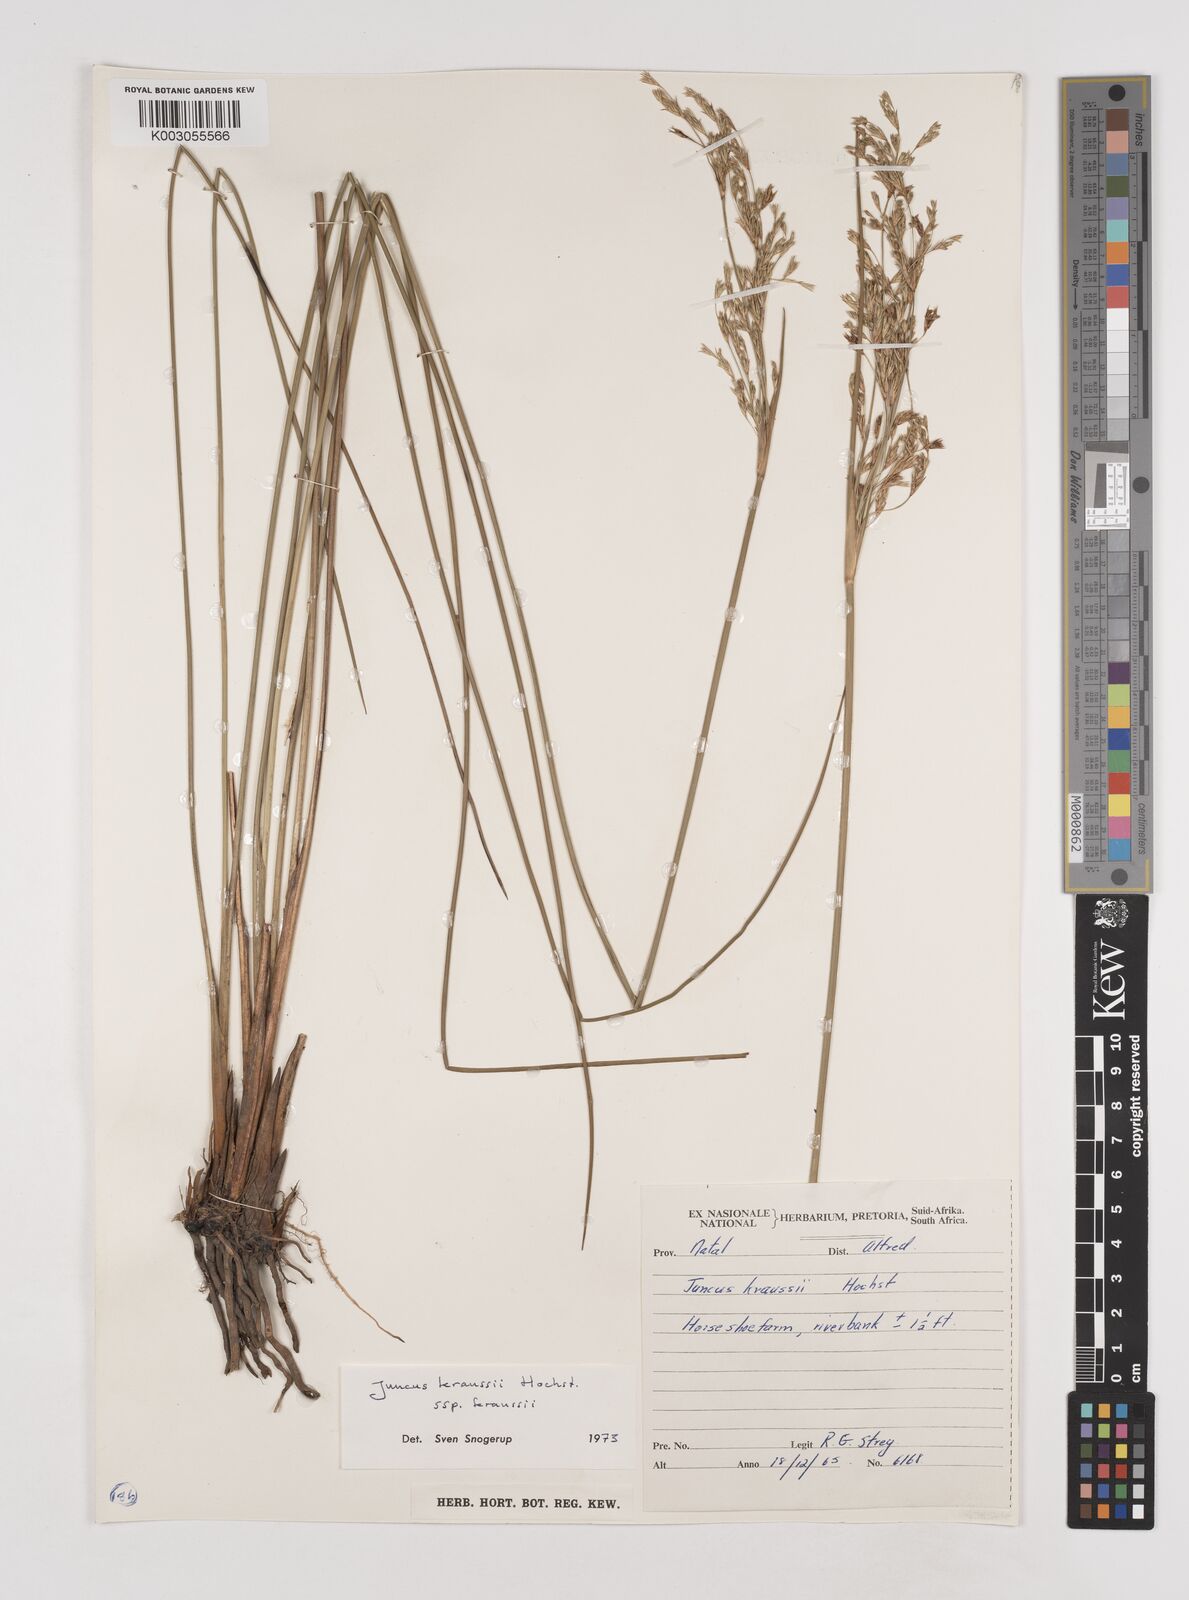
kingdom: Plantae
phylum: Tracheophyta
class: Liliopsida
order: Poales
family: Juncaceae
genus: Juncus
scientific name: Juncus kraussii
